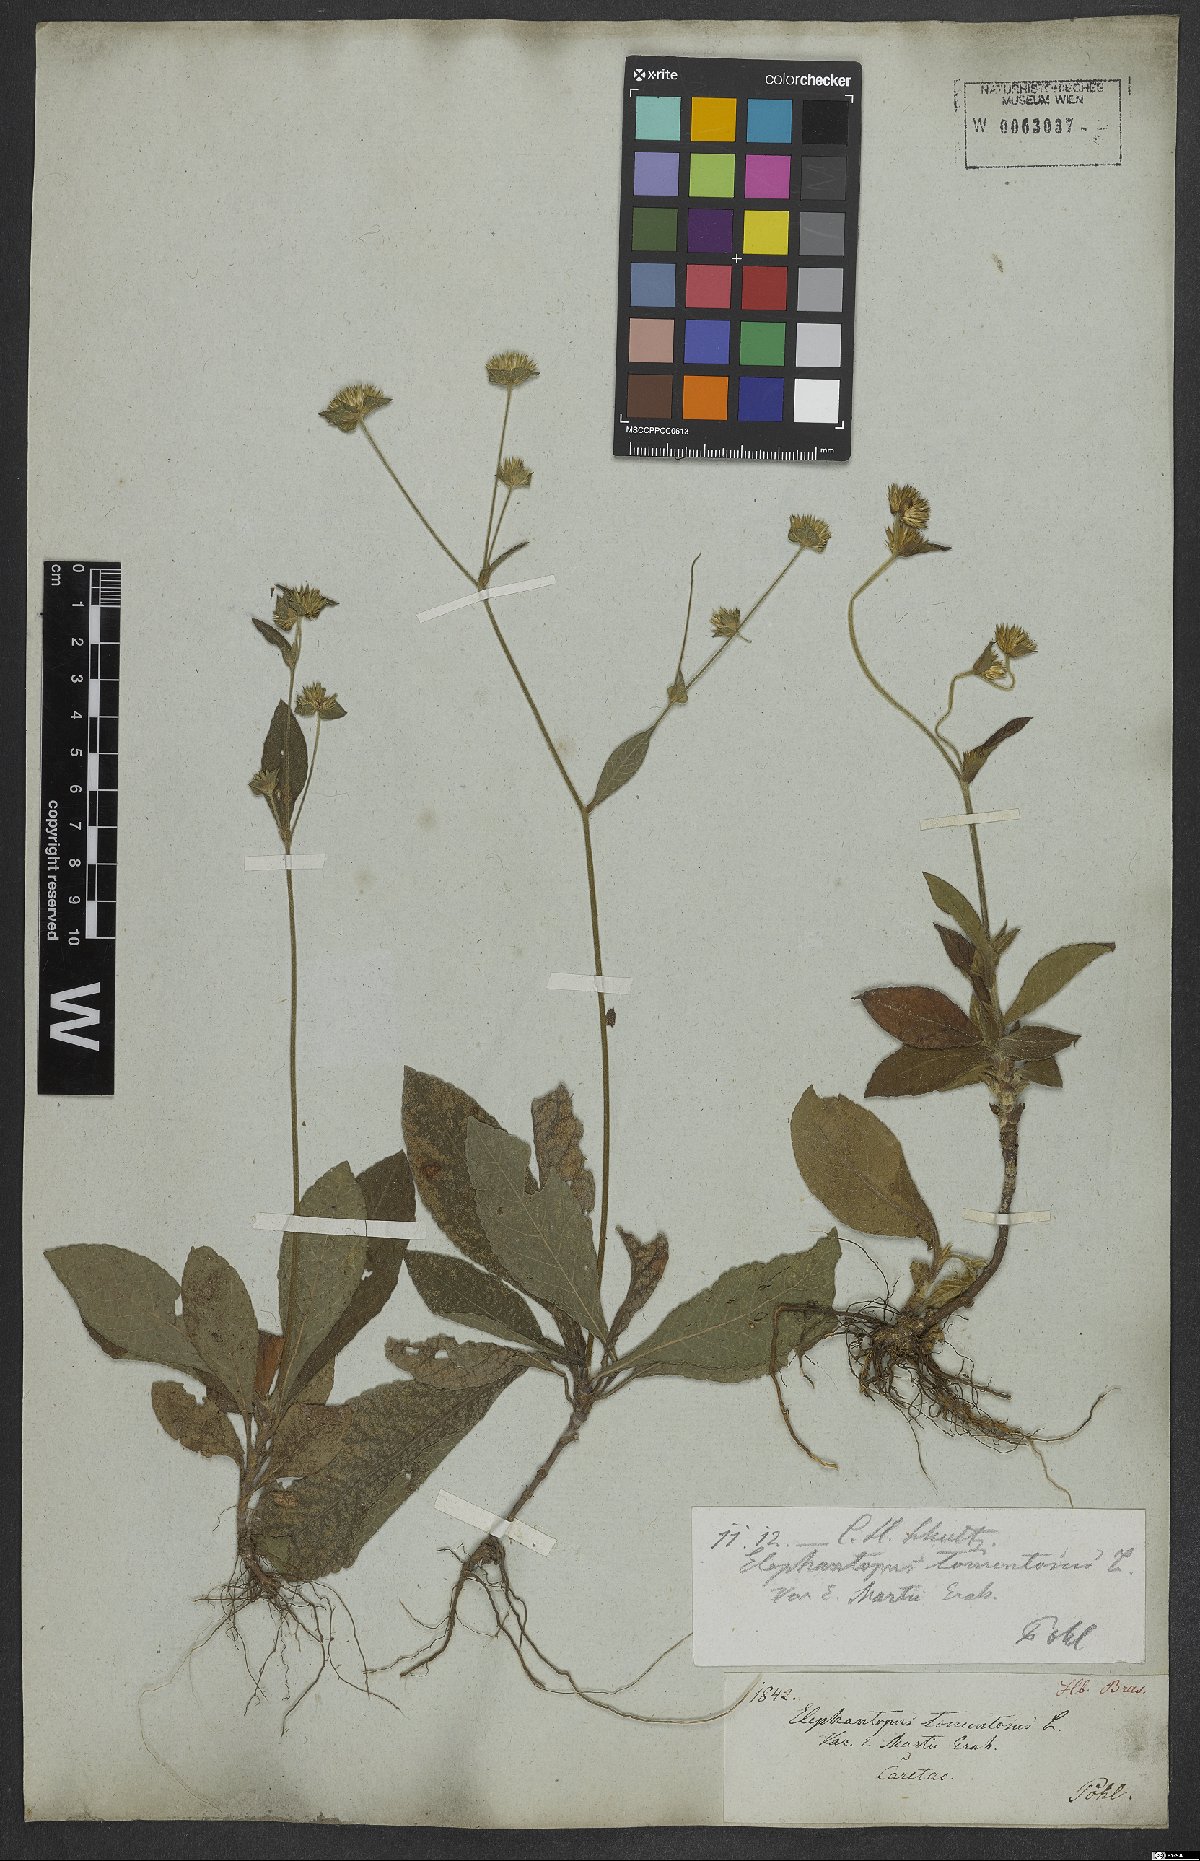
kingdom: Plantae
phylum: Tracheophyta
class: Magnoliopsida
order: Asterales
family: Asteraceae
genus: Elephantopus
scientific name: Elephantopus tomentosus
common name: Tobacco-weed
